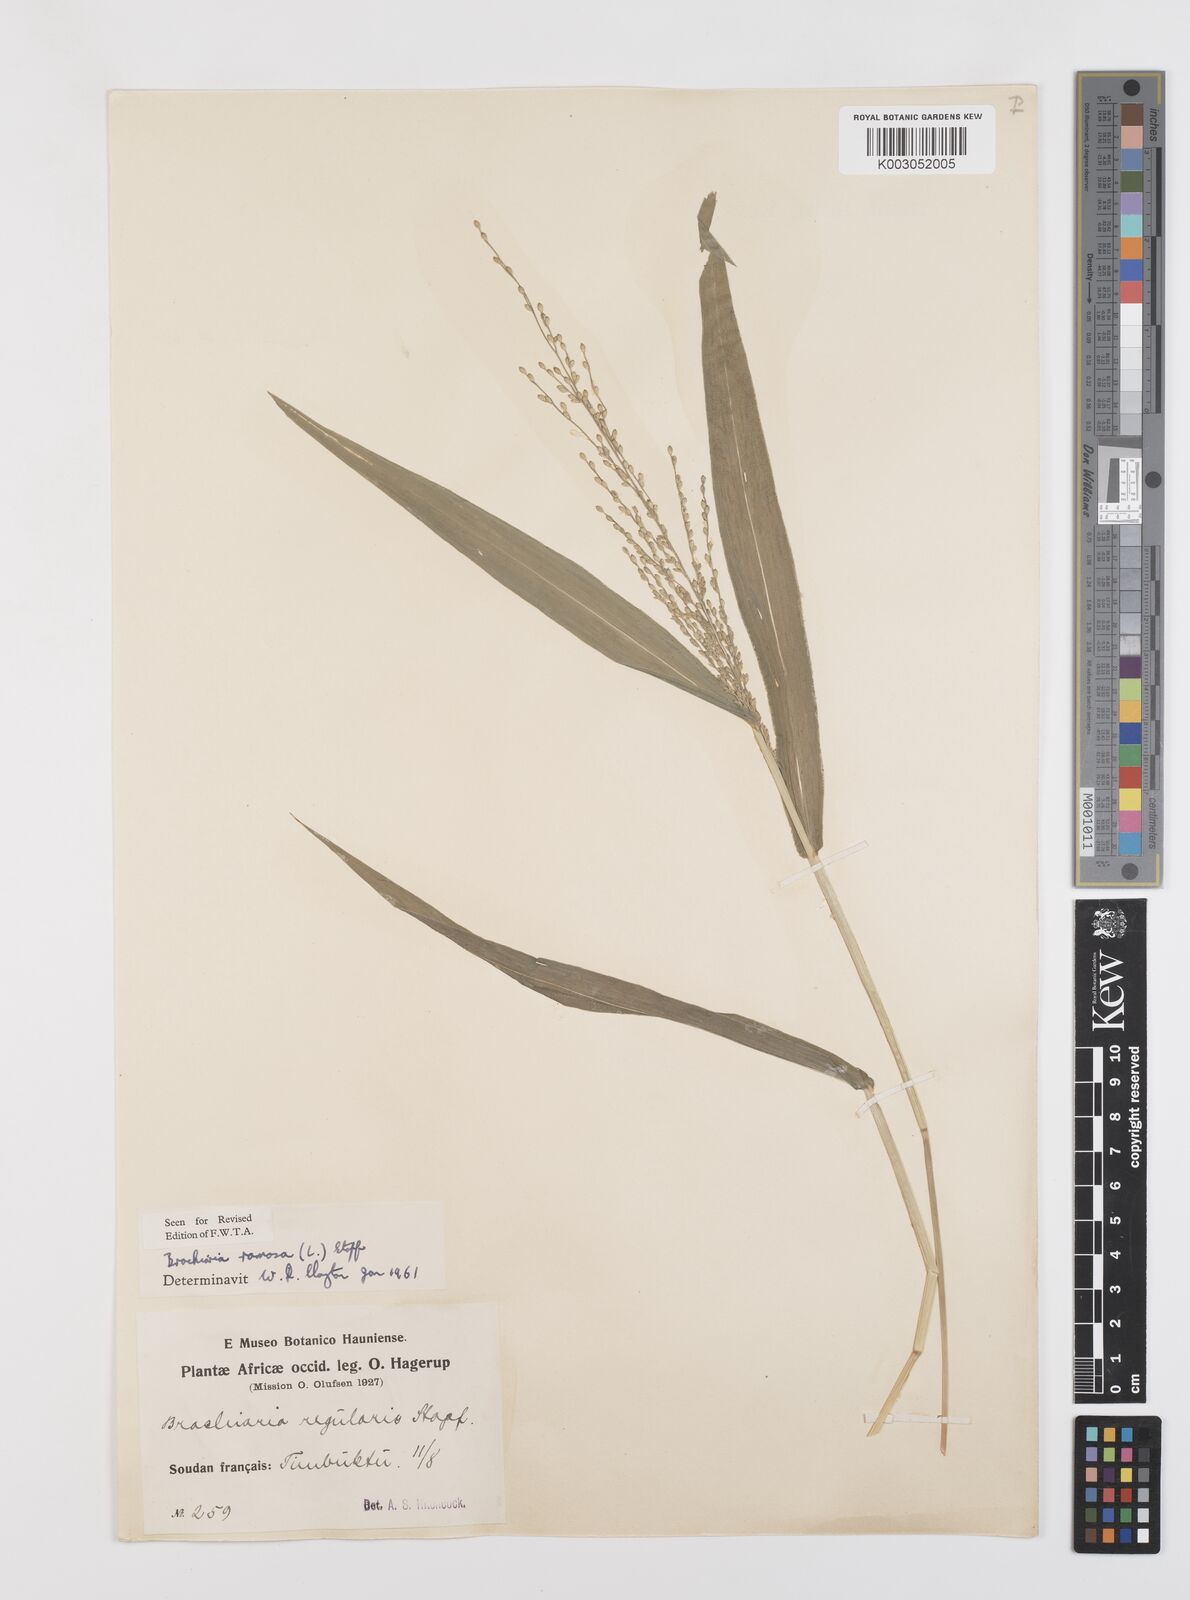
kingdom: Plantae
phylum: Tracheophyta
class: Liliopsida
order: Poales
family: Poaceae
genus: Urochloa
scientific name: Urochloa ramosa
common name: Browntop millet
